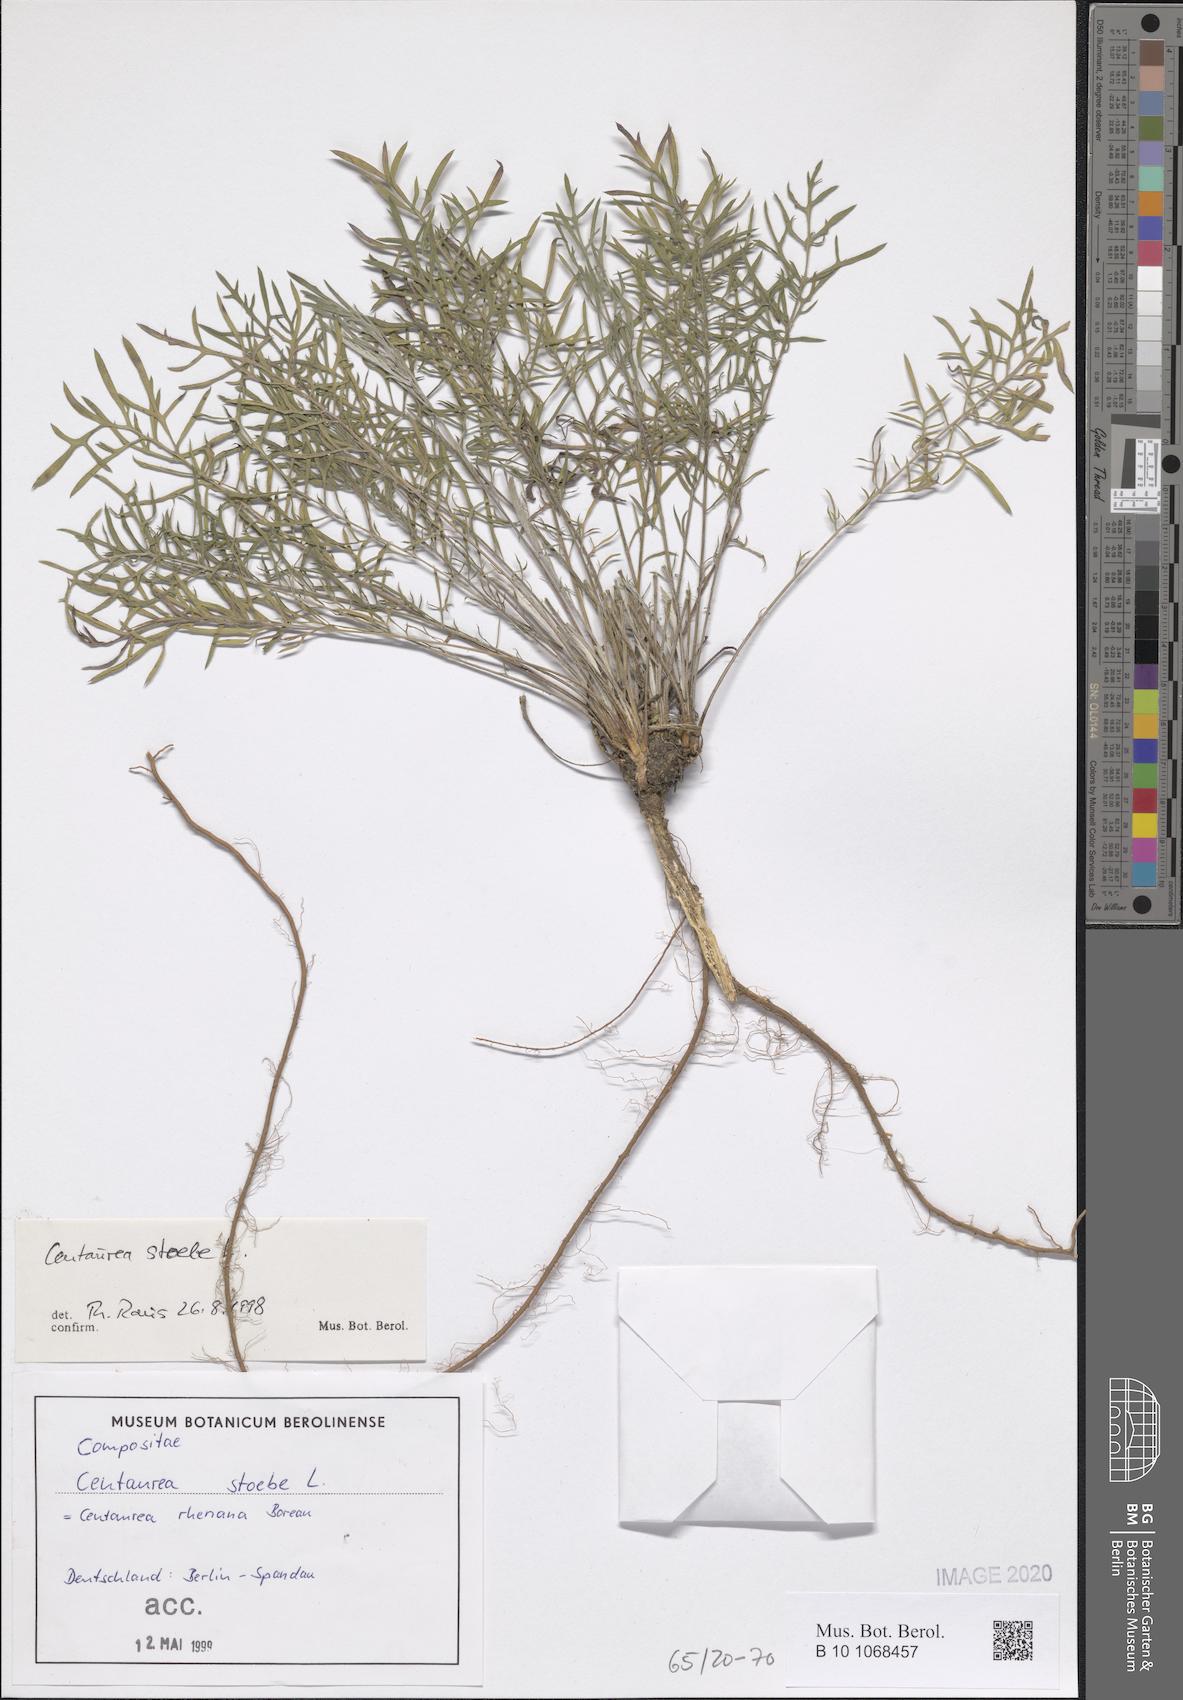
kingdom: Plantae
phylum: Tracheophyta
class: Magnoliopsida
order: Asterales
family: Asteraceae
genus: Centaurea
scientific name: Centaurea stoebe
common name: Spotted knapweed
